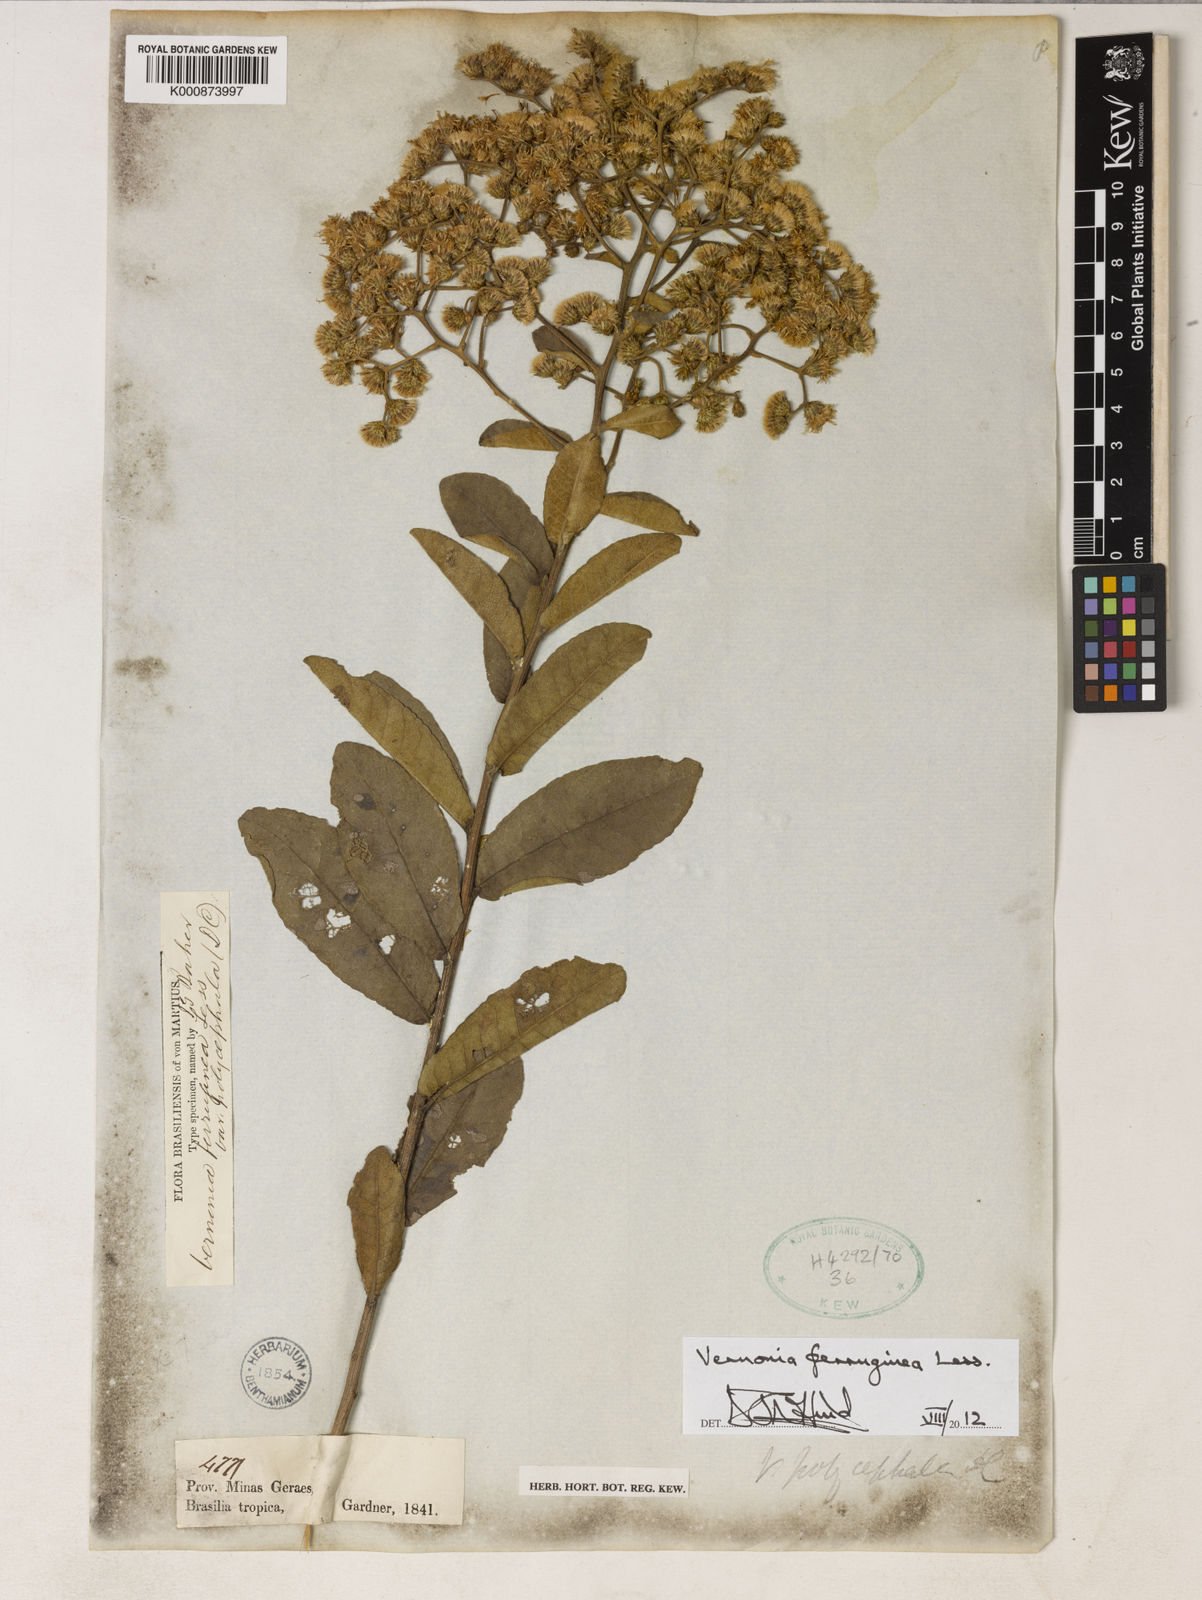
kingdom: Plantae
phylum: Tracheophyta
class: Magnoliopsida
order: Asterales
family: Asteraceae
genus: Vernonanthura
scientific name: Vernonanthura ferruginea
